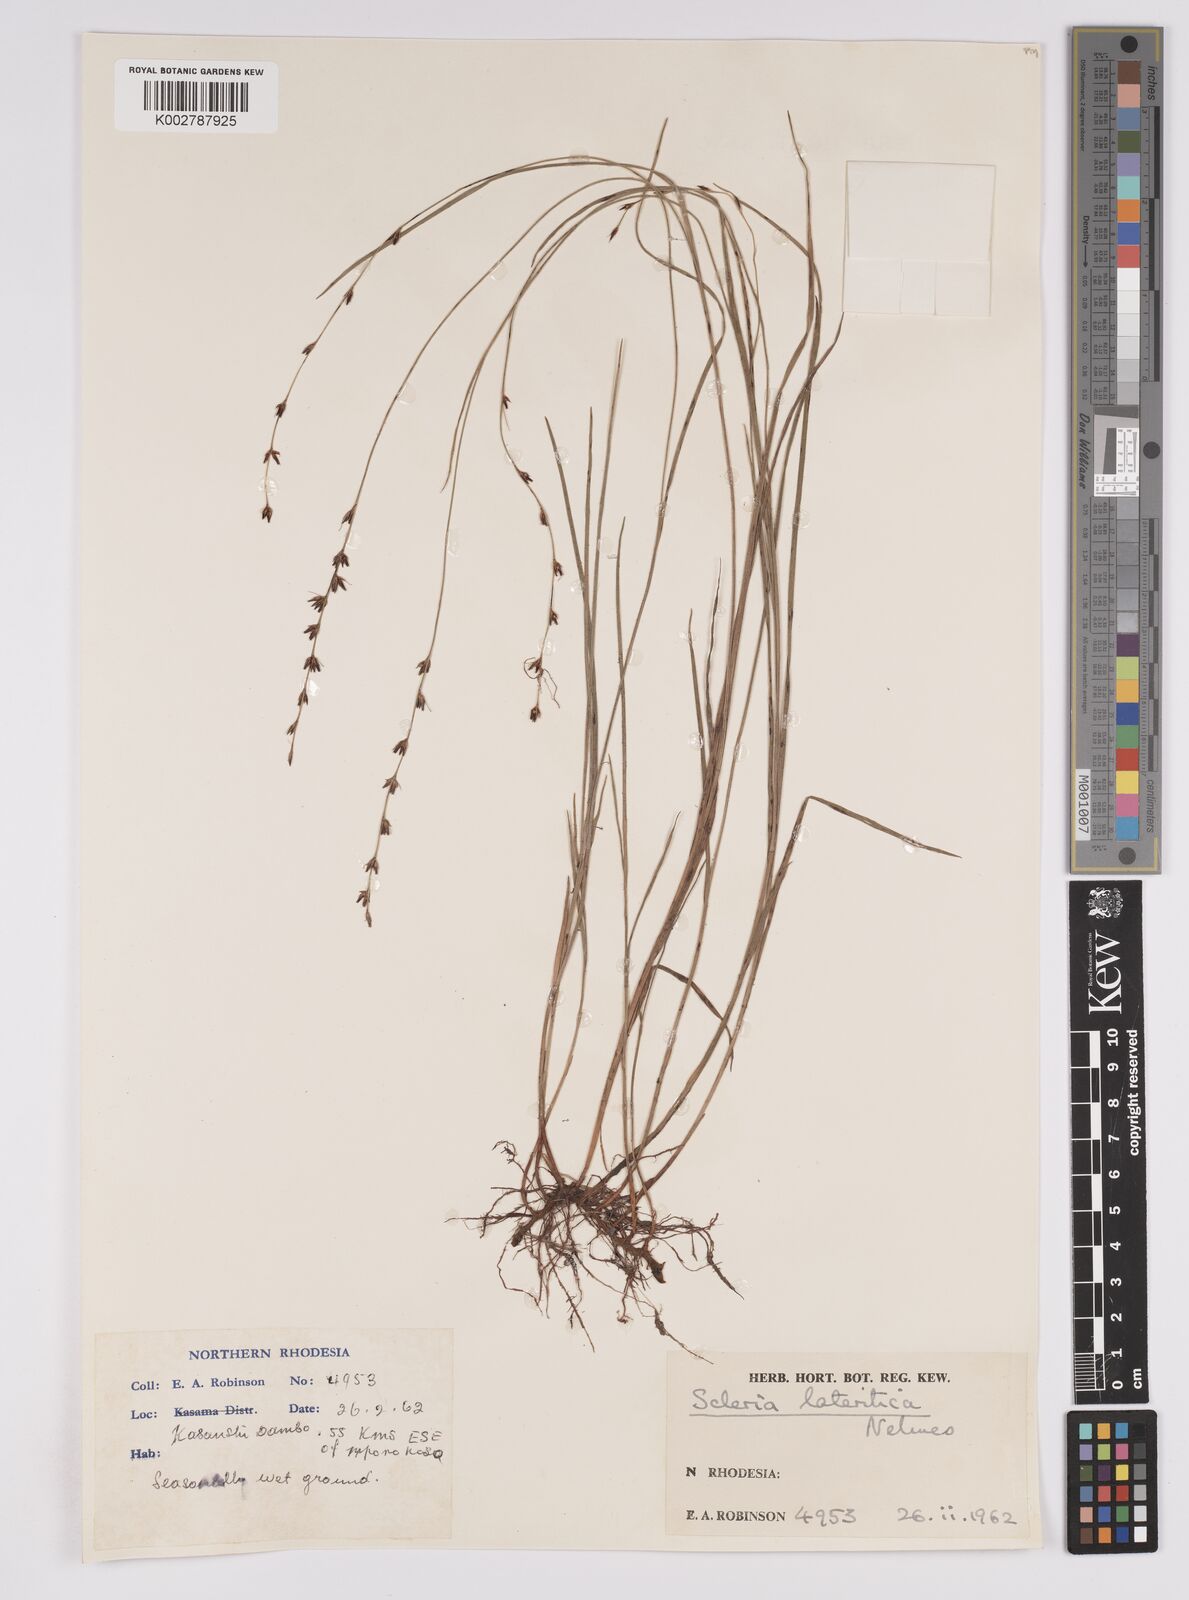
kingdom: Plantae
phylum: Tracheophyta
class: Liliopsida
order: Poales
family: Cyperaceae
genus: Scleria
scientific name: Scleria lateritica
